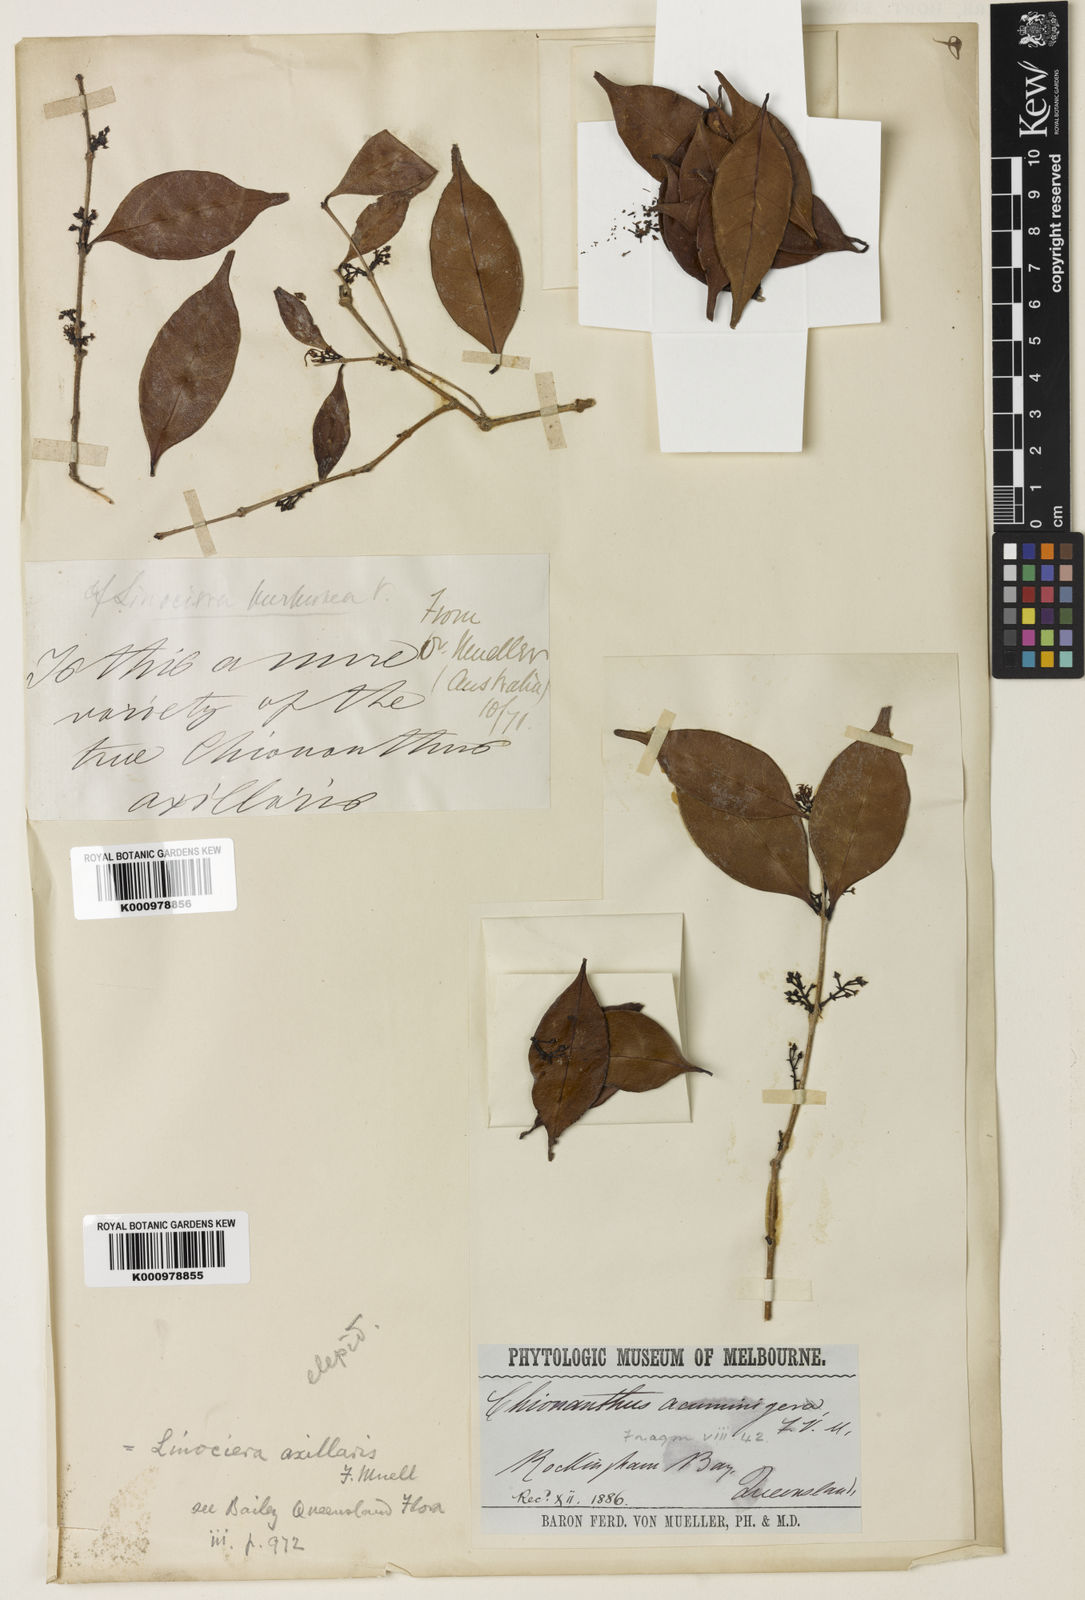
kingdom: Plantae
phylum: Tracheophyta
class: Magnoliopsida
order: Lamiales
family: Oleaceae
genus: Chionanthus
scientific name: Chionanthus axillaris
